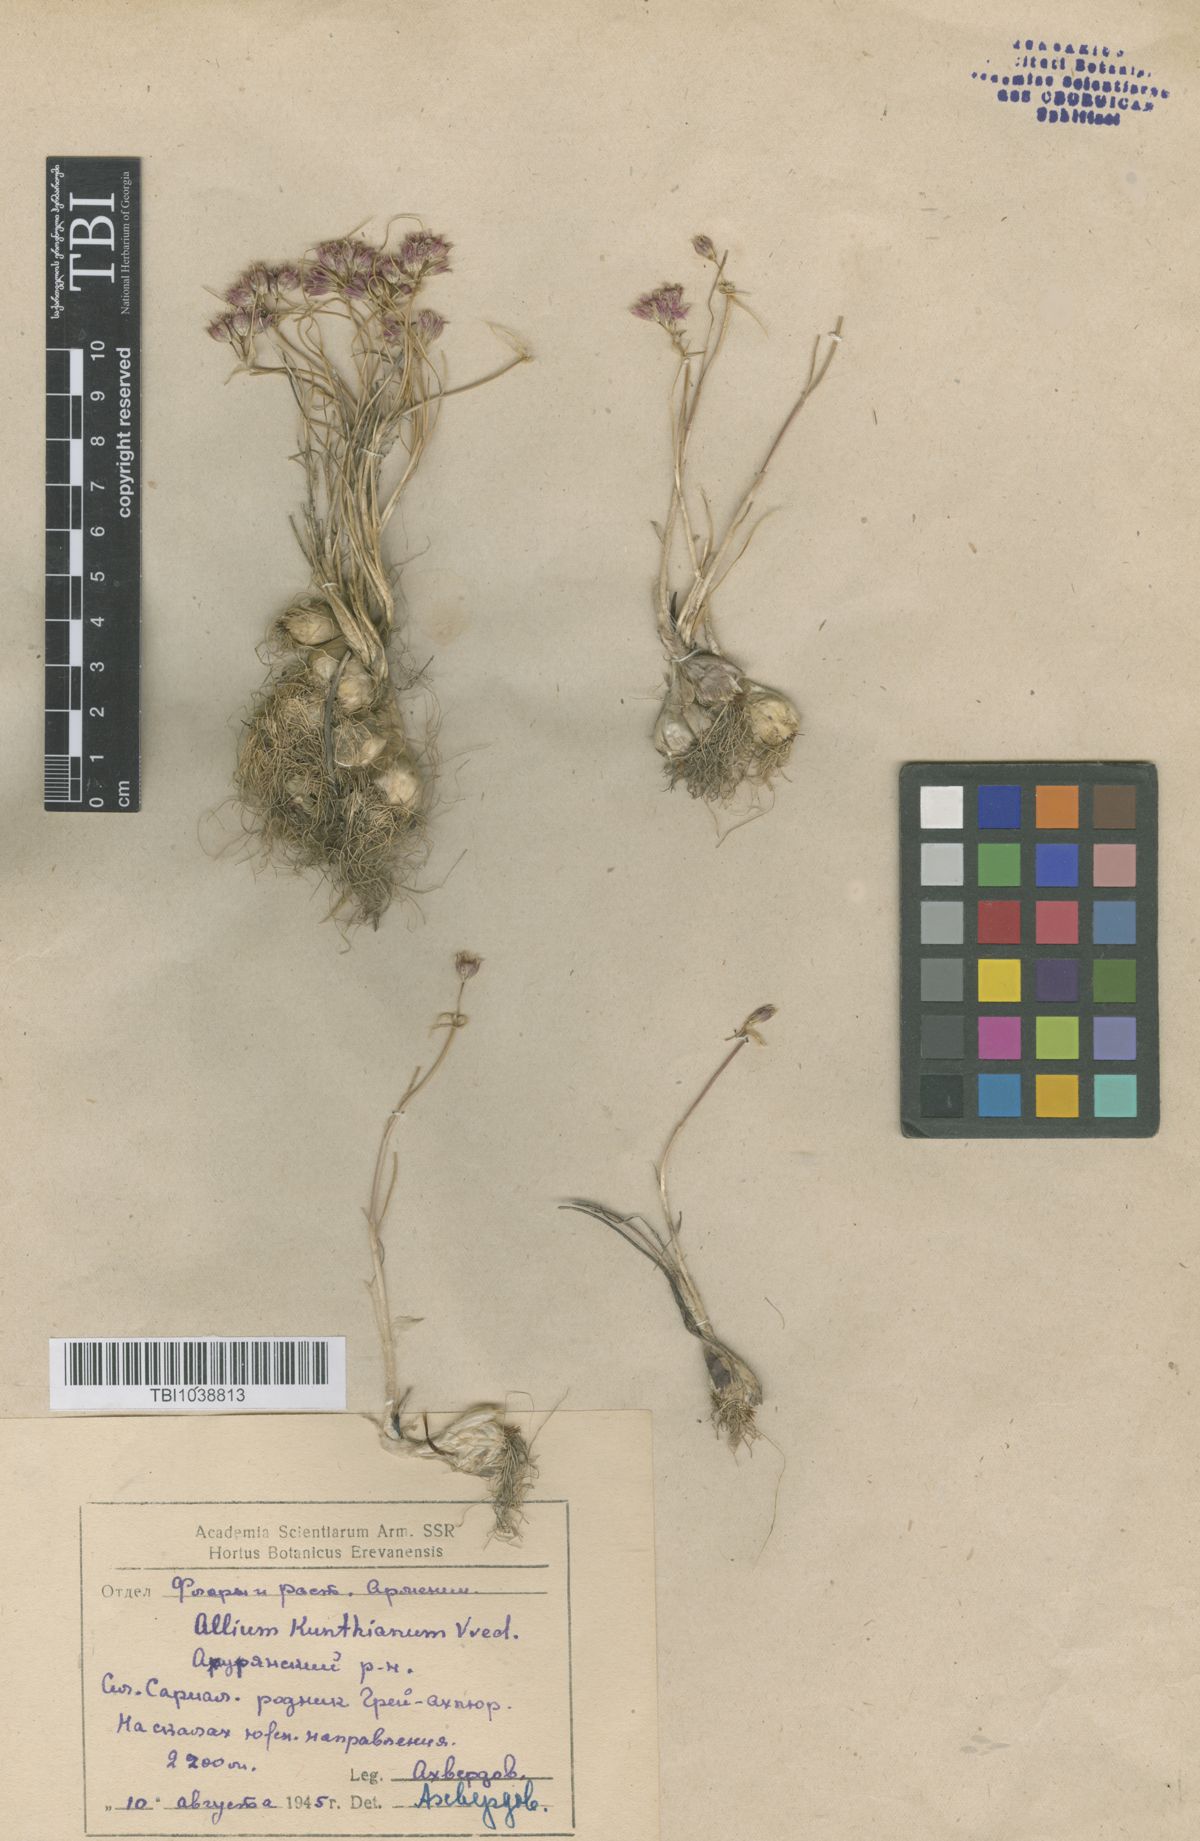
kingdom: Plantae
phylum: Tracheophyta
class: Liliopsida
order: Asparagales
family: Amaryllidaceae
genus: Allium
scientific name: Allium kunthianum
